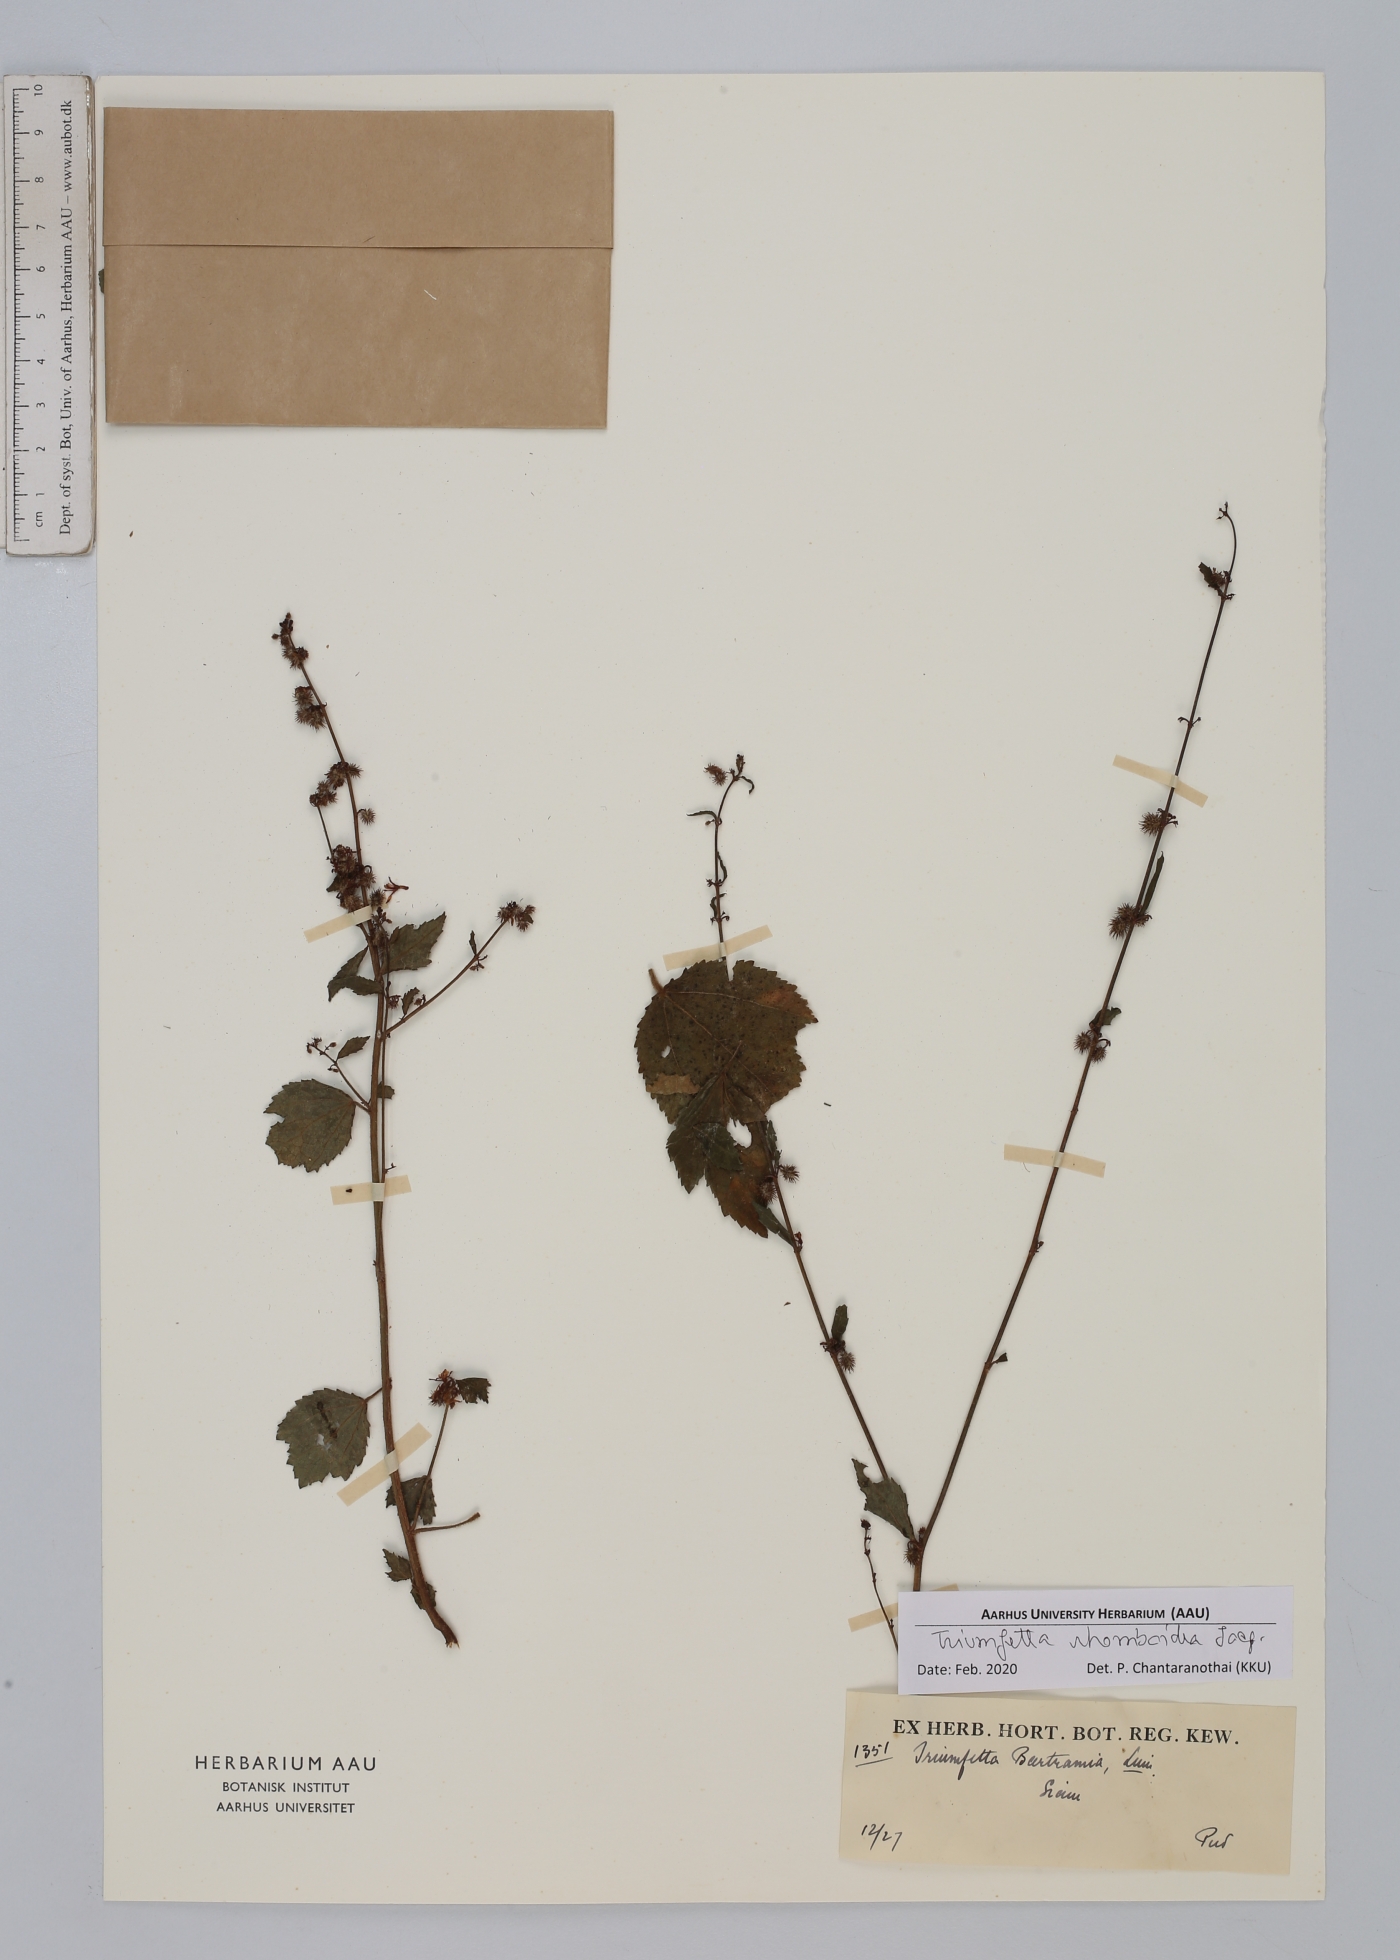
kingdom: Plantae
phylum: Tracheophyta
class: Magnoliopsida
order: Malvales
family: Malvaceae
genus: Triumfetta
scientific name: Triumfetta rhomboidea
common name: Diamond burbark
